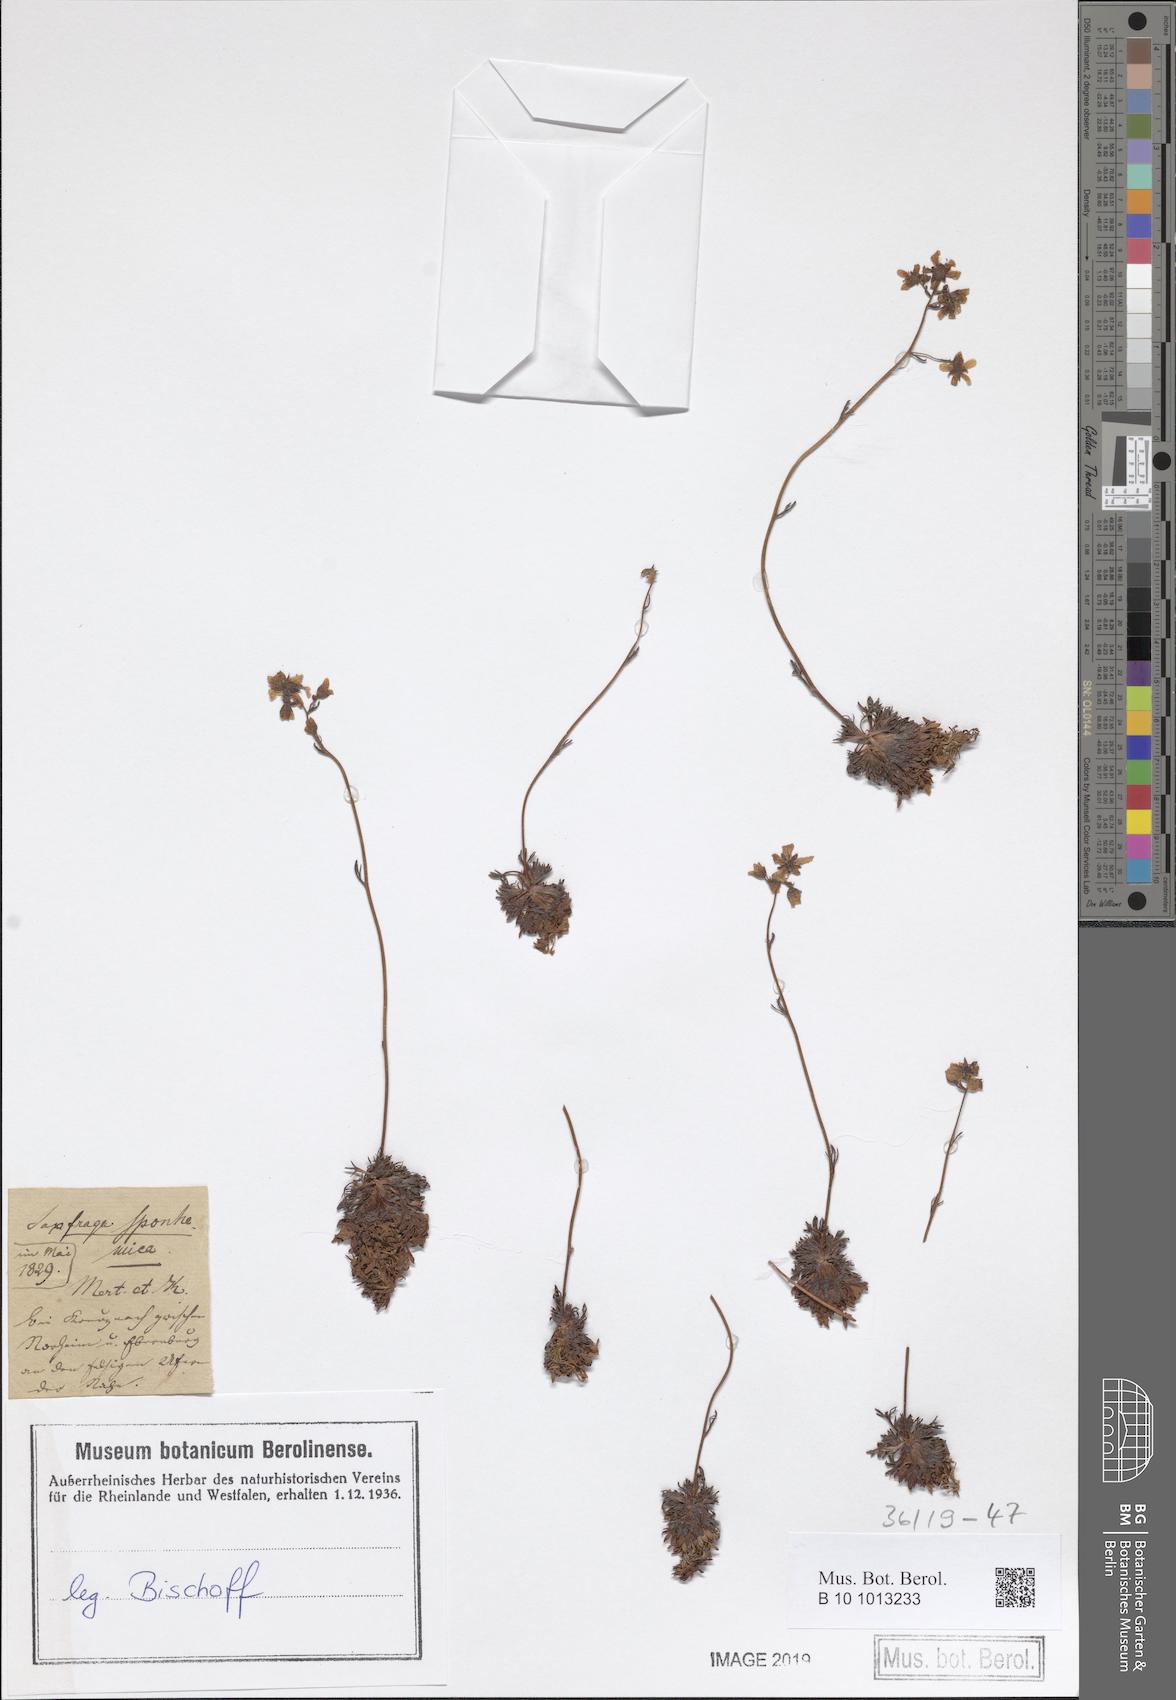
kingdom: Plantae
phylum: Tracheophyta
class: Magnoliopsida
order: Saxifragales
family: Saxifragaceae
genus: Saxifraga
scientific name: Saxifraga rosacea
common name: Irish saxifrage
